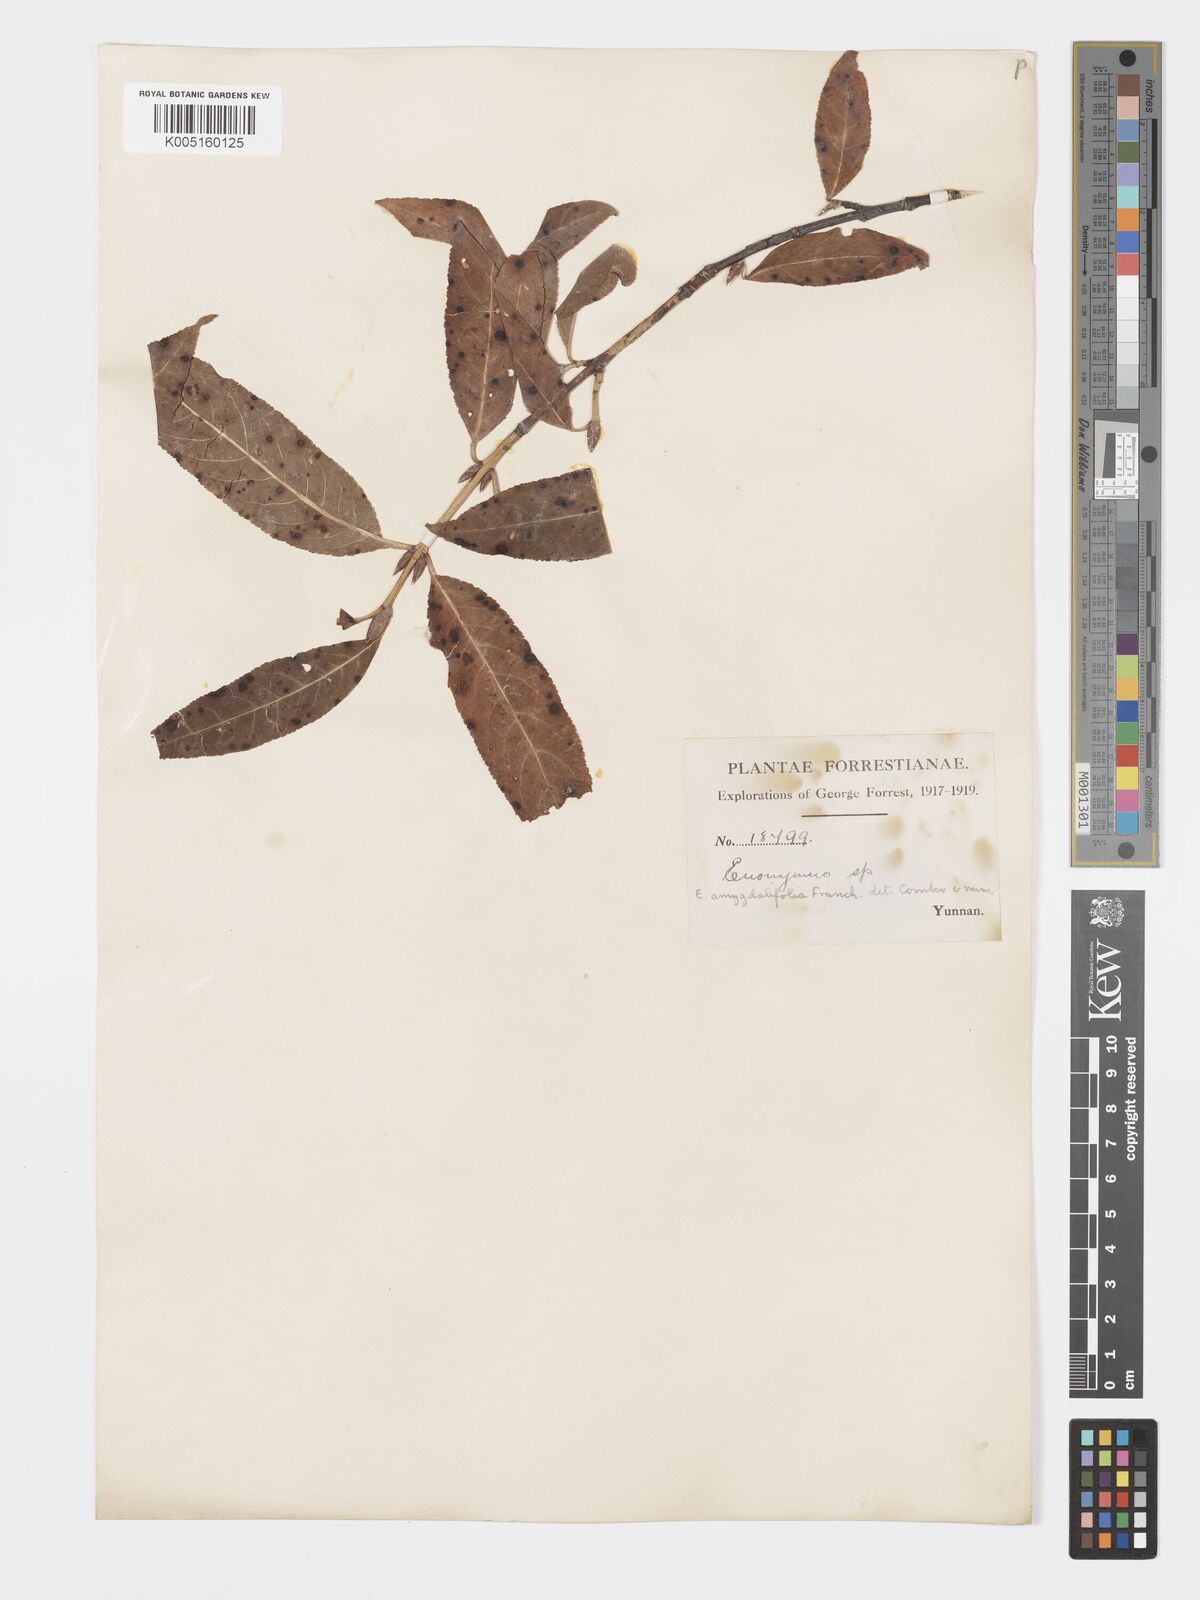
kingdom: Plantae
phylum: Tracheophyta
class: Magnoliopsida
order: Celastrales
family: Celastraceae
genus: Euonymus
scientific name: Euonymus amygdalifolius
